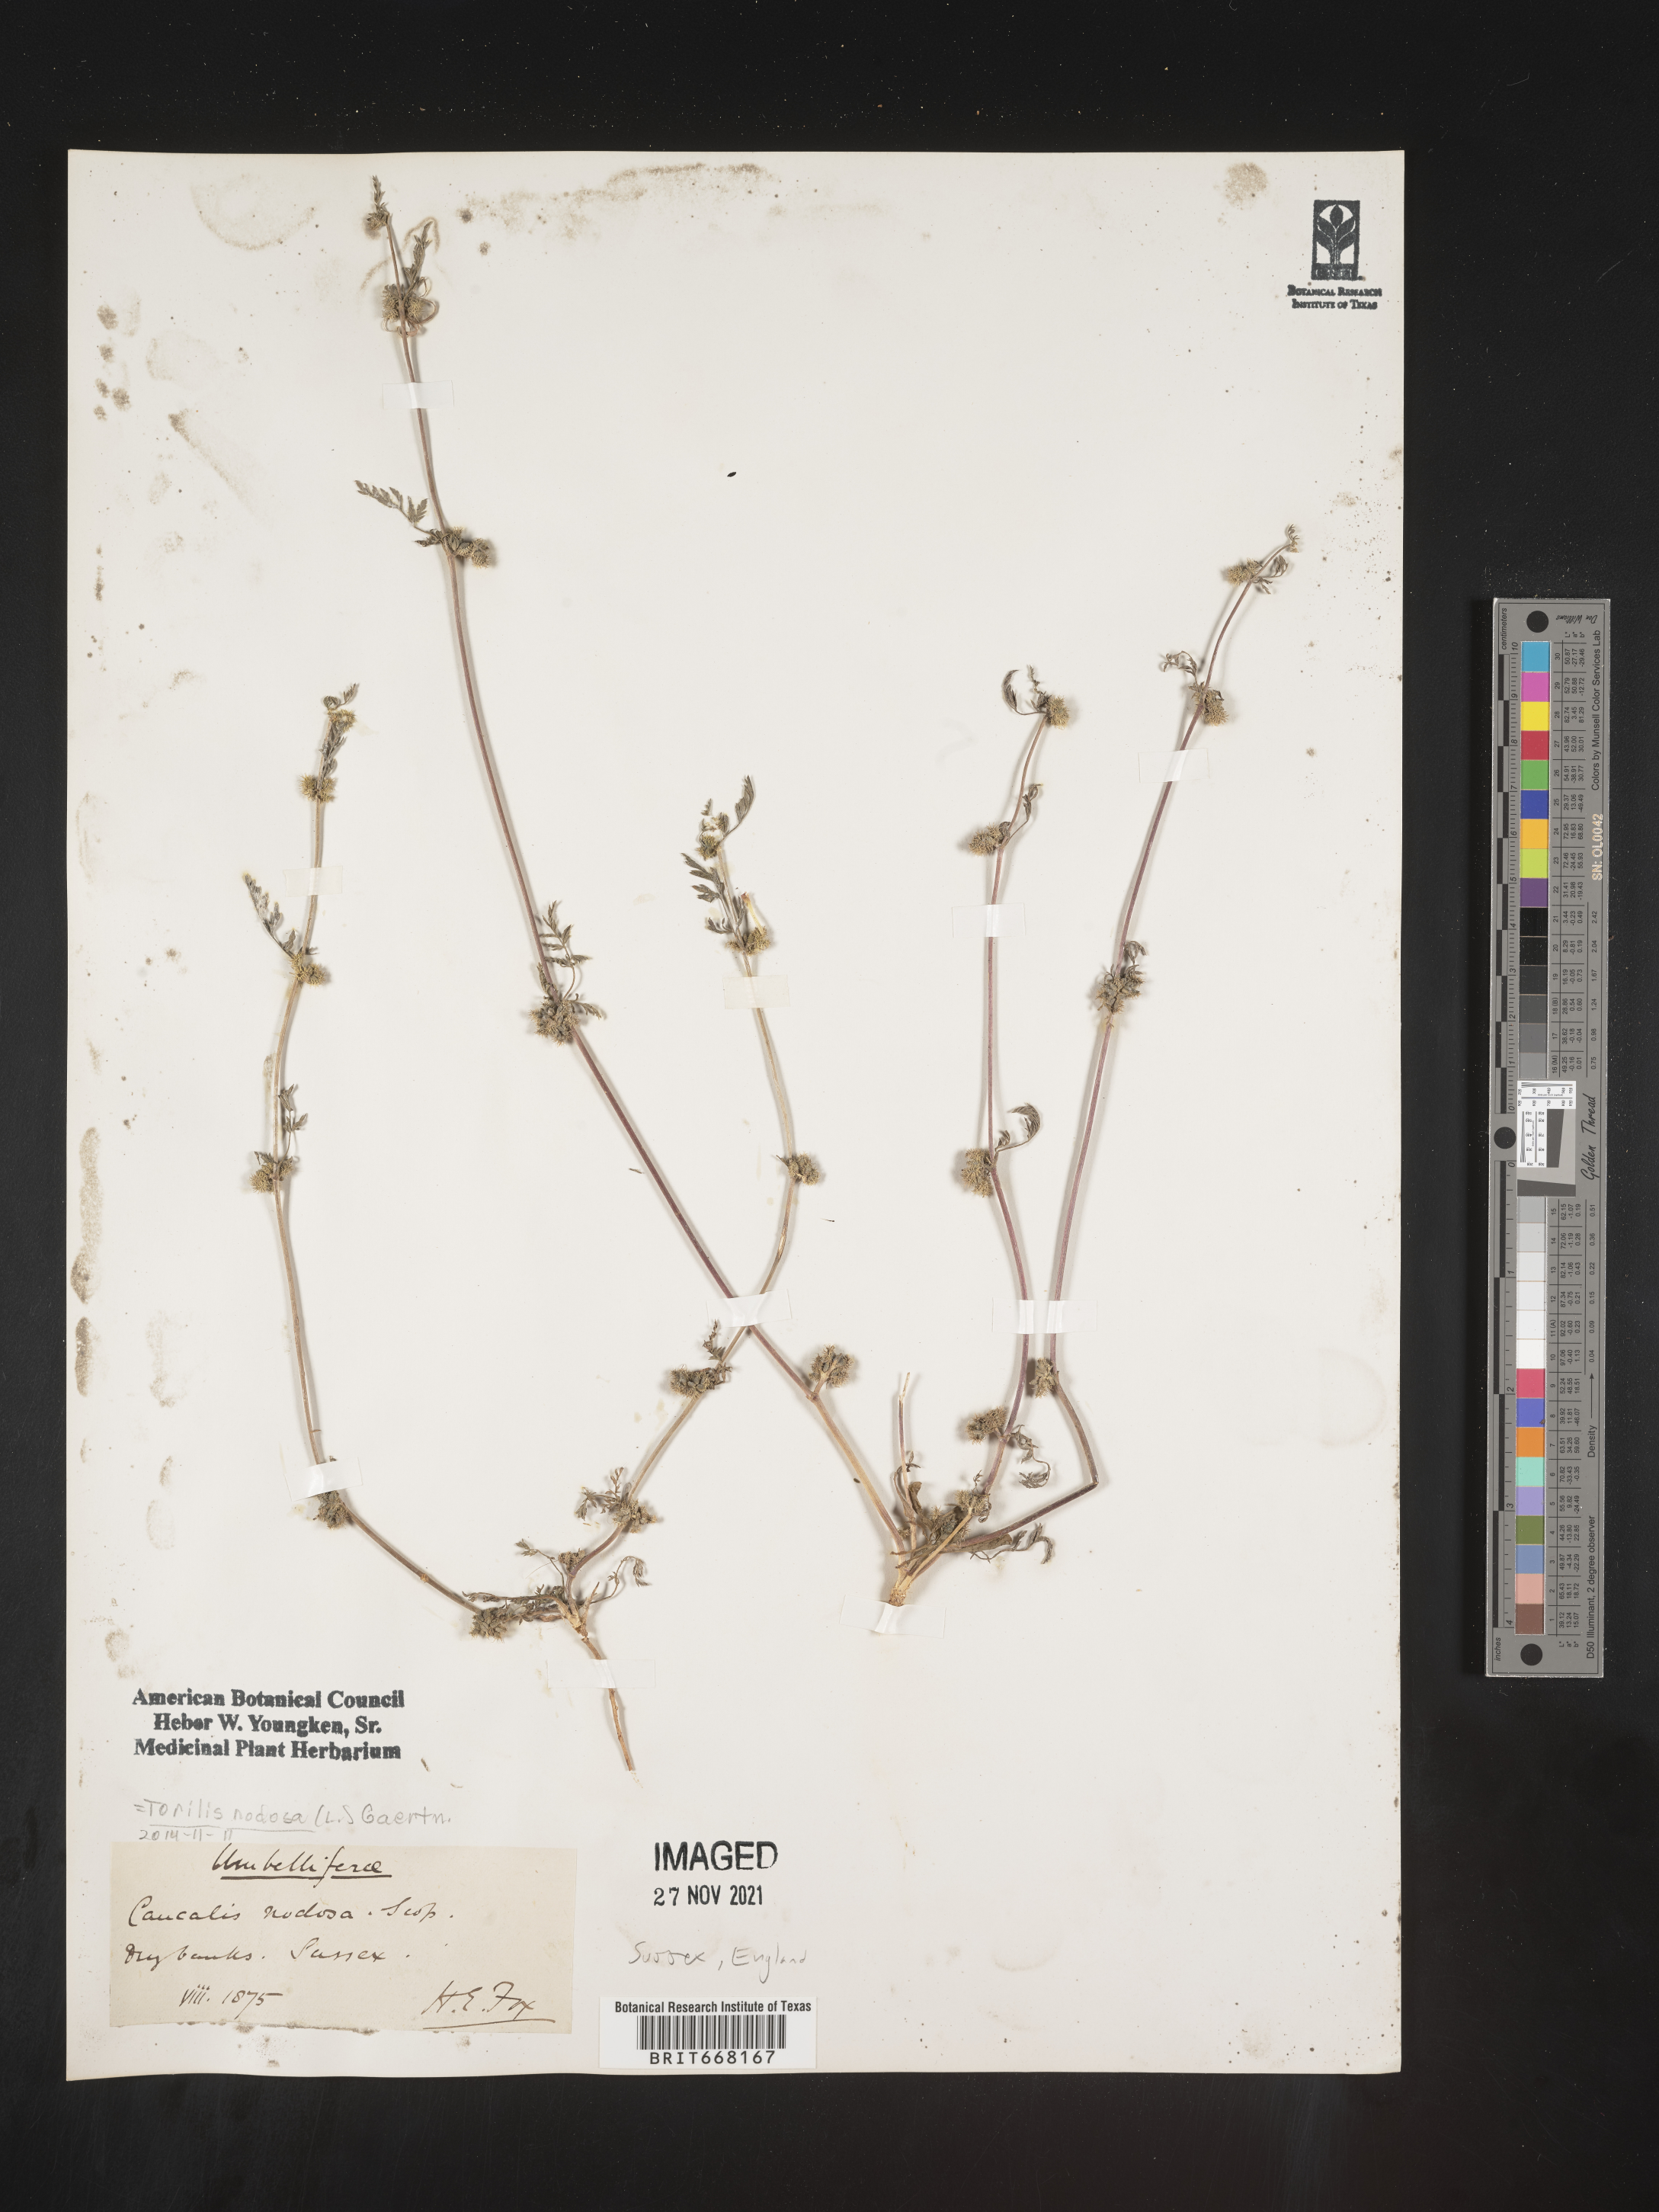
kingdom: Plantae
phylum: Tracheophyta
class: Magnoliopsida
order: Apiales
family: Apiaceae
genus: Caucalis
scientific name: Caucalis
